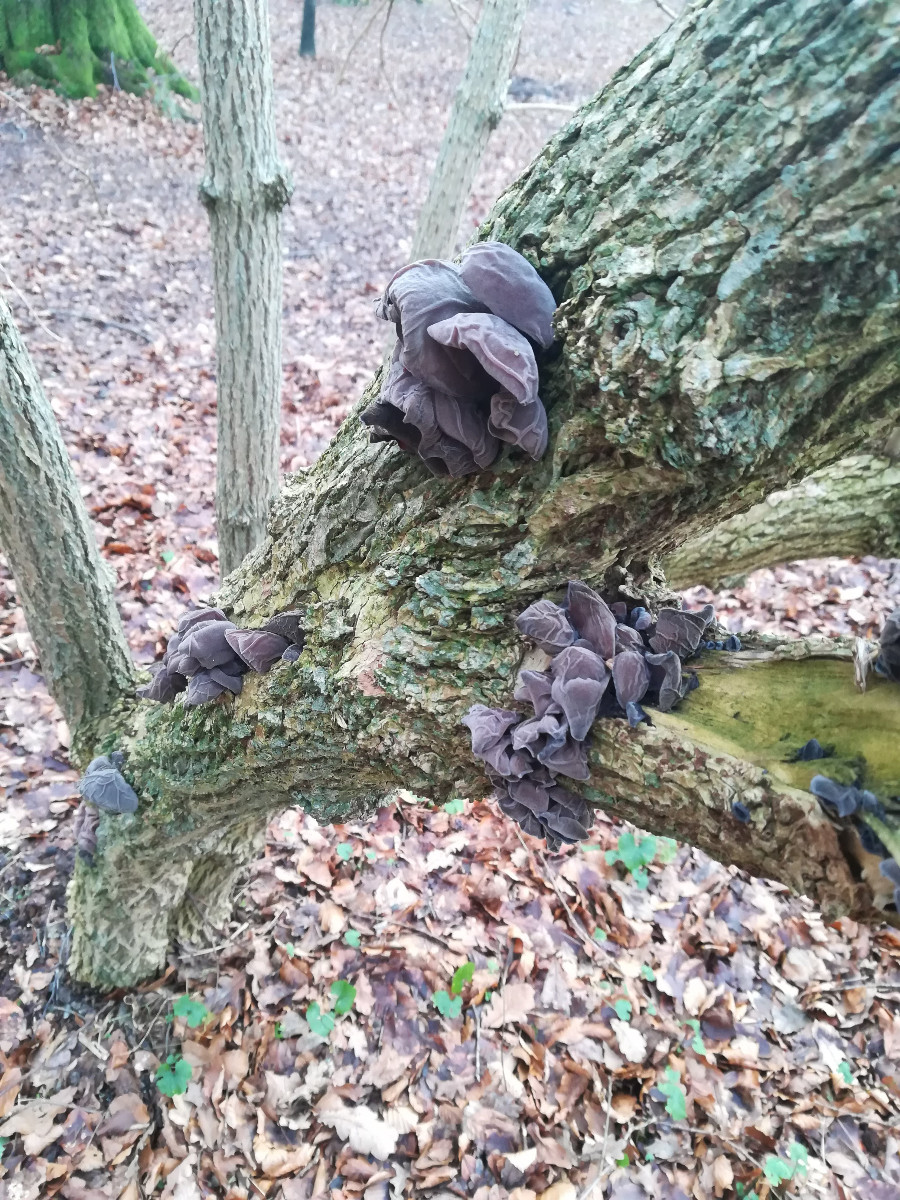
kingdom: Fungi
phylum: Basidiomycota
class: Agaricomycetes
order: Auriculariales
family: Auriculariaceae
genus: Auricularia
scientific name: Auricularia auricula-judae
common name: almindelig judasøre
